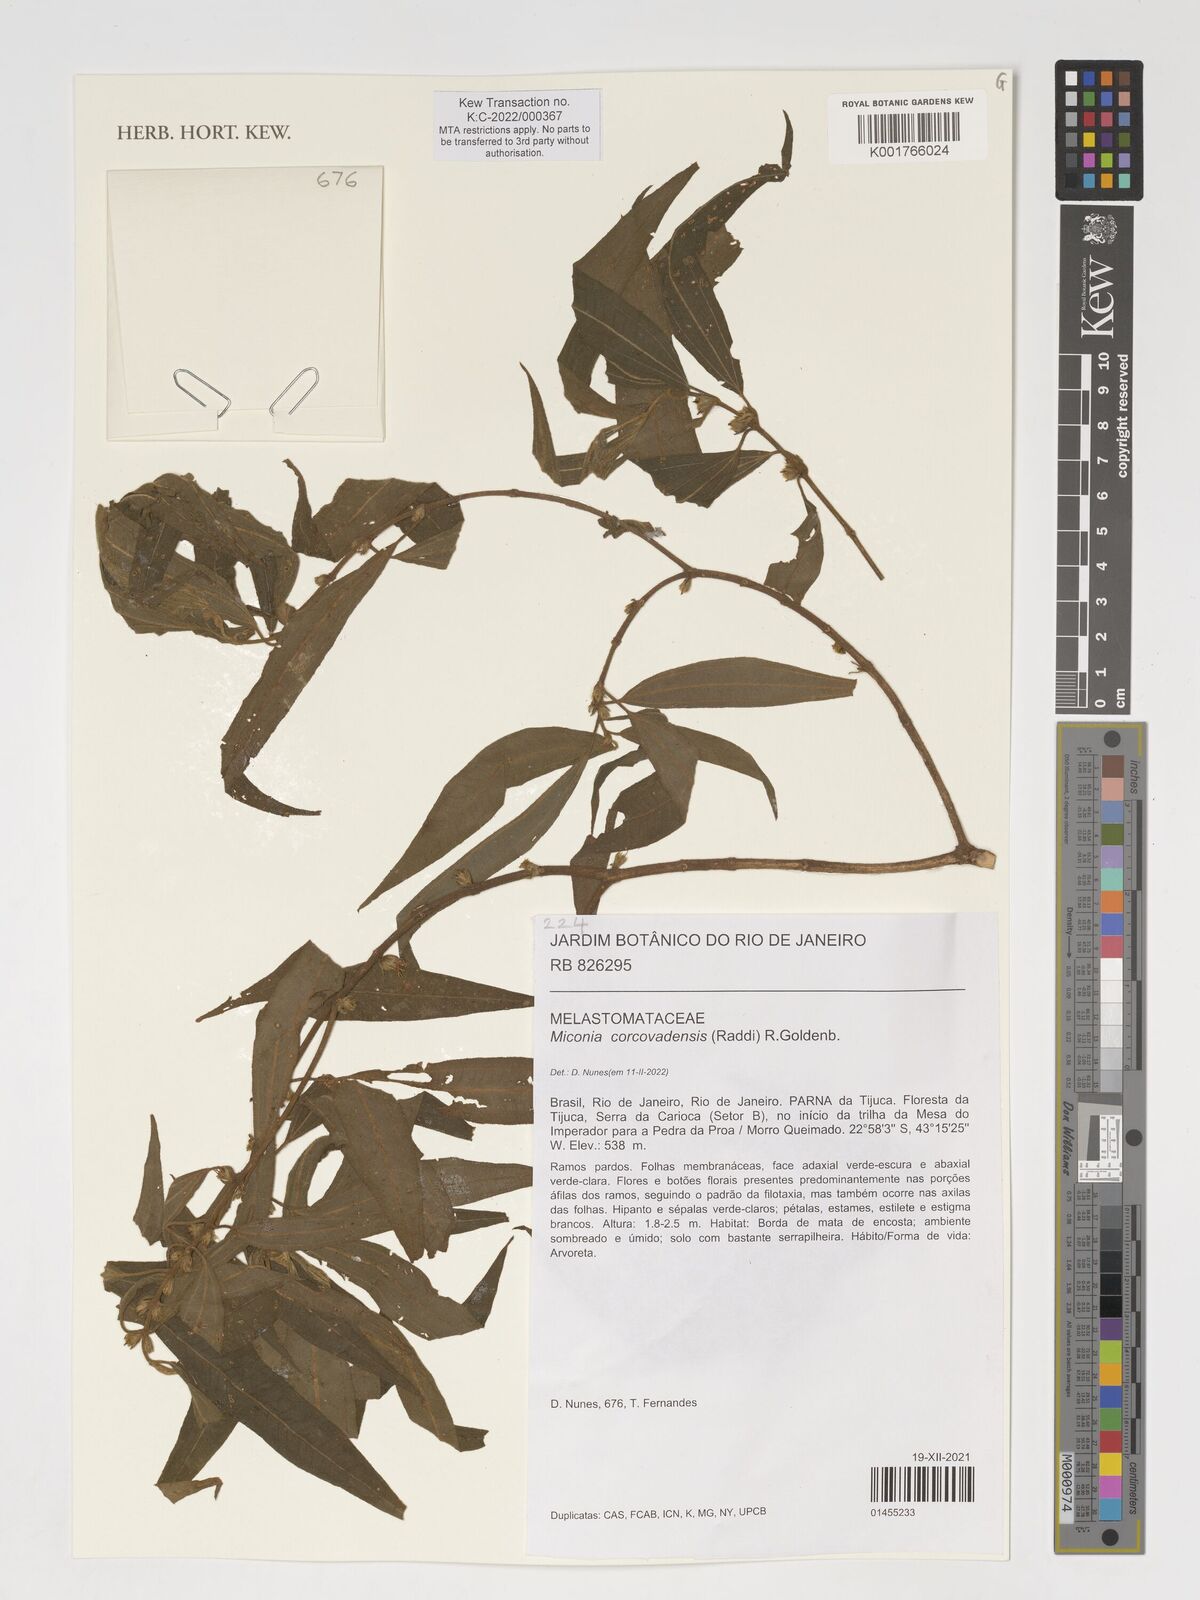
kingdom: Plantae
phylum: Tracheophyta
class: Magnoliopsida
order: Myrtales
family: Melastomataceae
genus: Miconia
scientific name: Miconia
